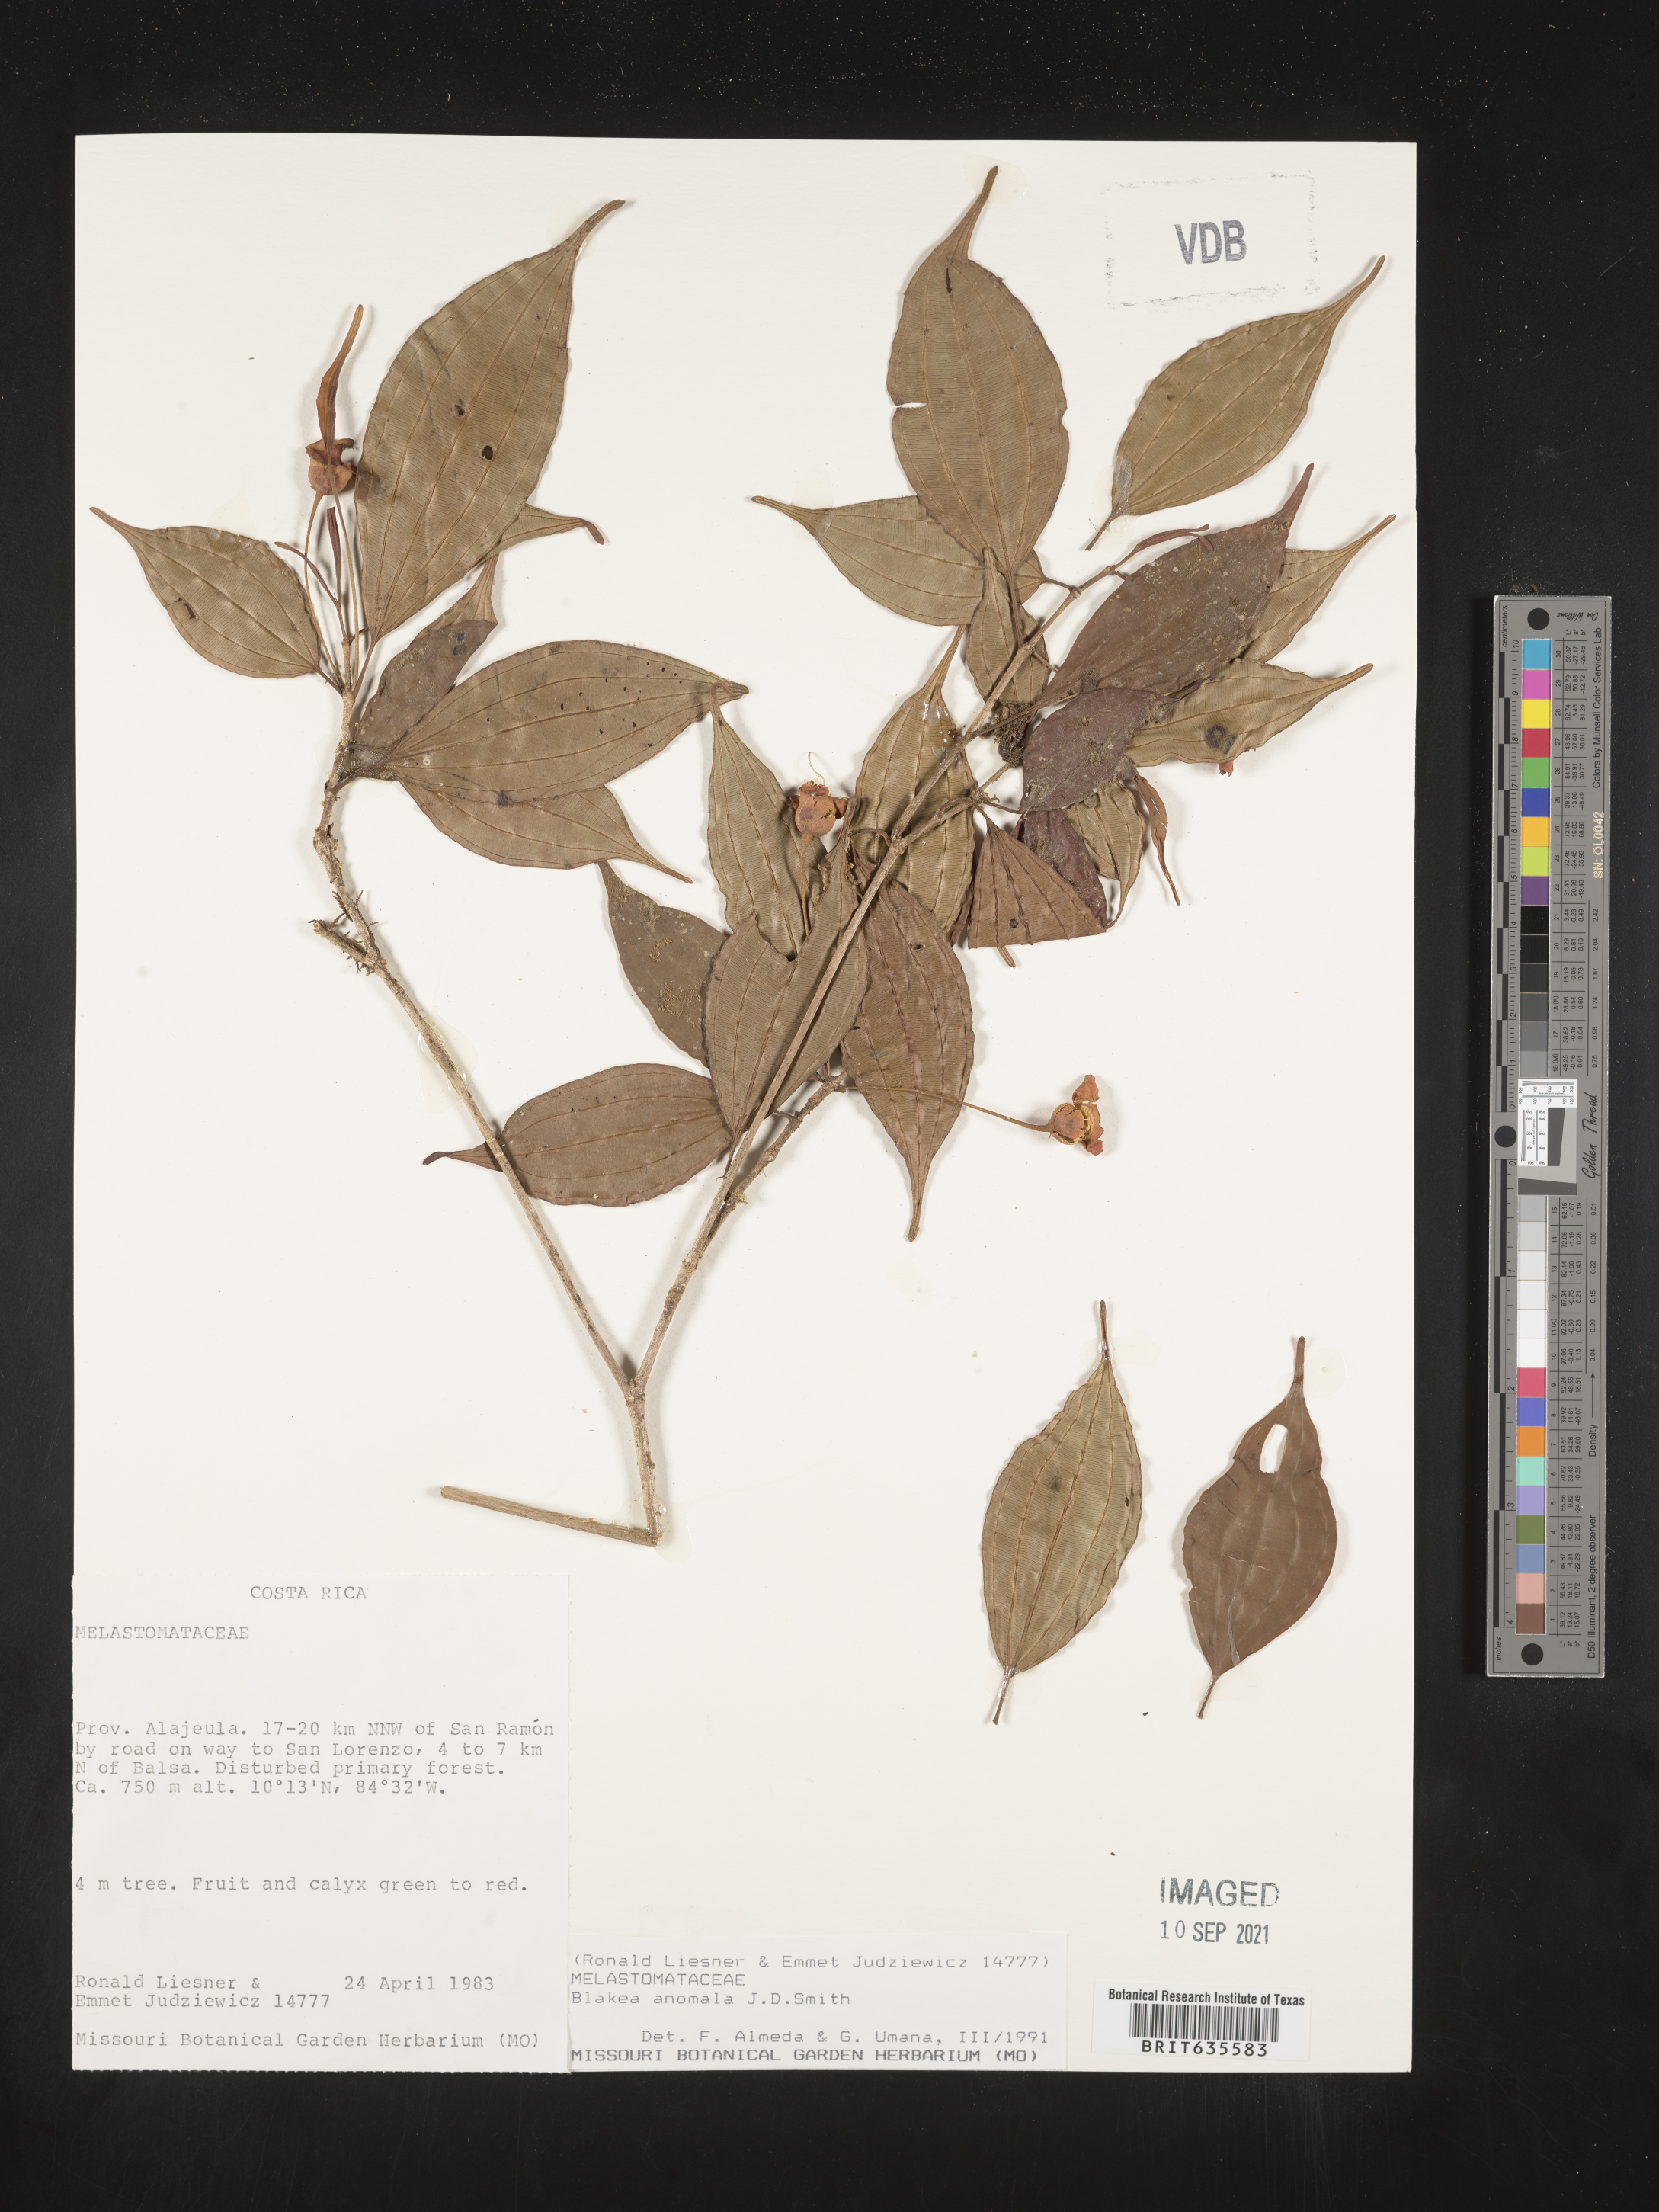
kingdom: Plantae
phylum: Tracheophyta
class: Magnoliopsida
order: Myrtales
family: Melastomataceae
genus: Blakea
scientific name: Blakea
